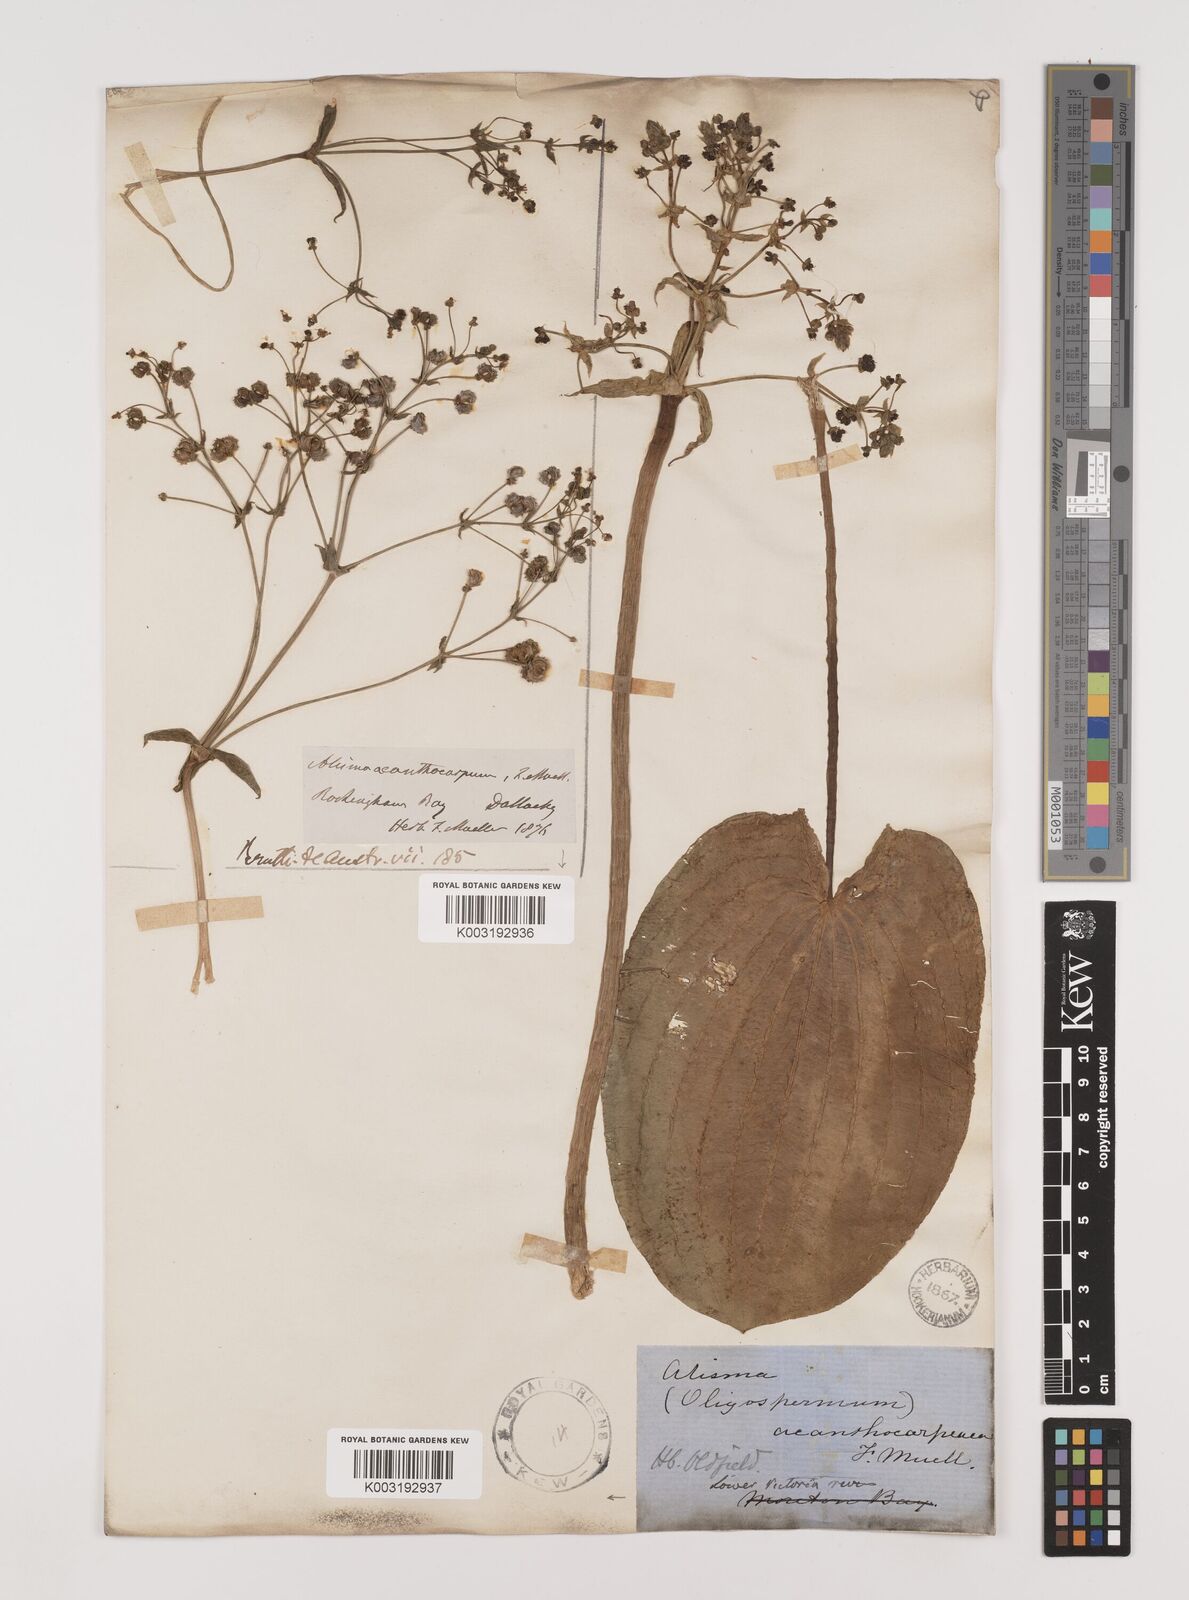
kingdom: Plantae
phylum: Tracheophyta
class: Liliopsida
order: Alismatales
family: Alismataceae
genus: Albidella
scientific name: Albidella oligococca
